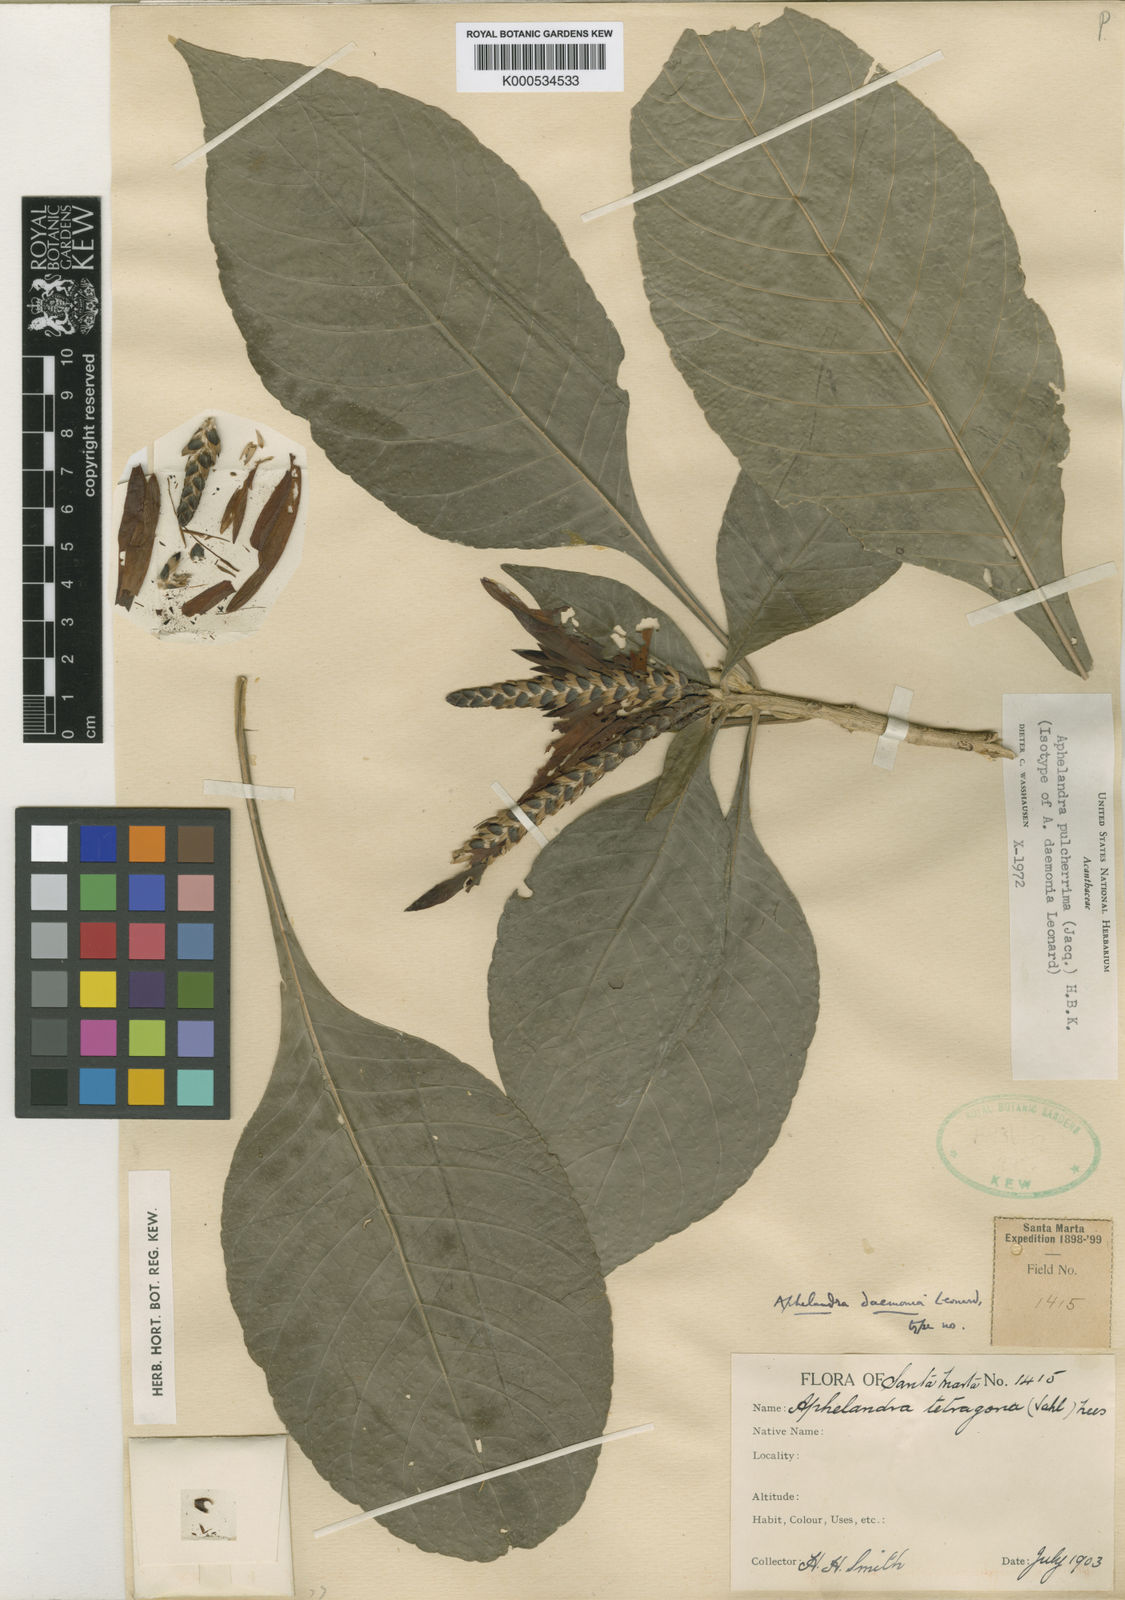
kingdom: Plantae
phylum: Tracheophyta
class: Magnoliopsida
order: Lamiales
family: Acanthaceae
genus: Aphelandra
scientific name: Aphelandra pulcherrima
